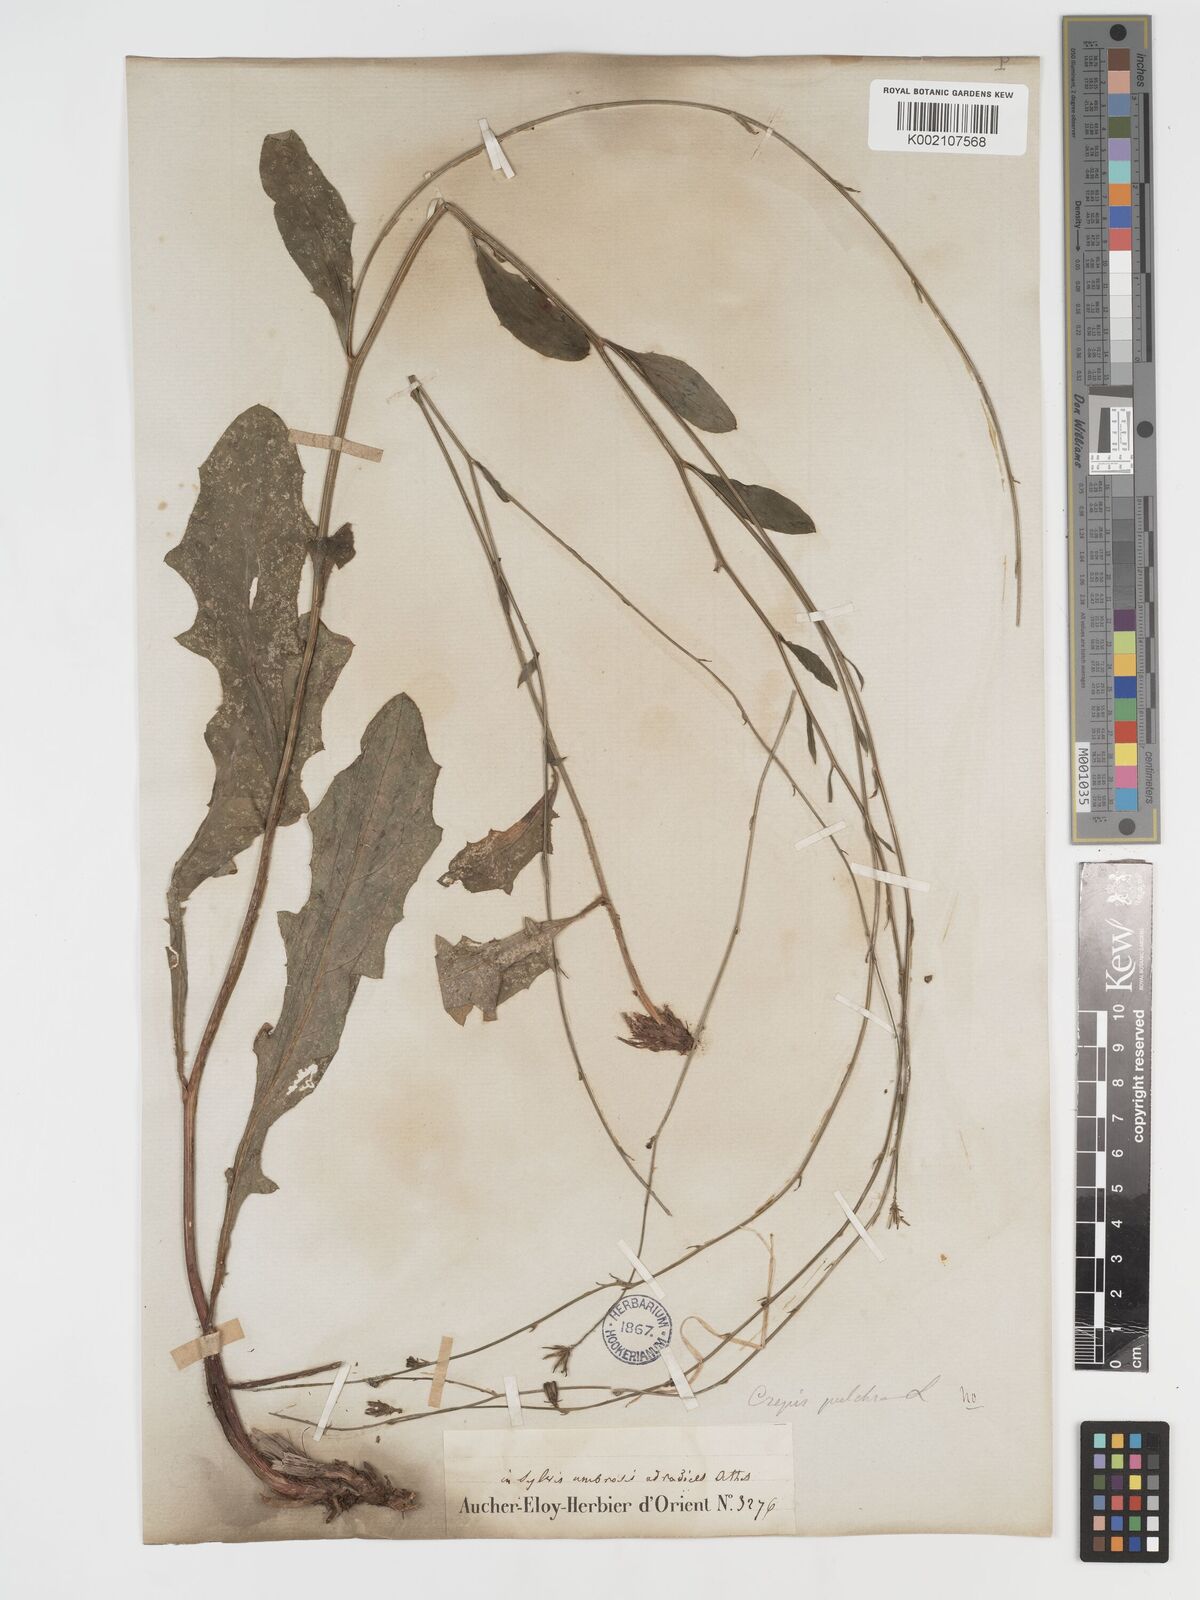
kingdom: Plantae
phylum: Tracheophyta
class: Magnoliopsida
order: Asterales
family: Asteraceae
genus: Crepis
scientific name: Crepis pulchra
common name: Hawk's-beard
